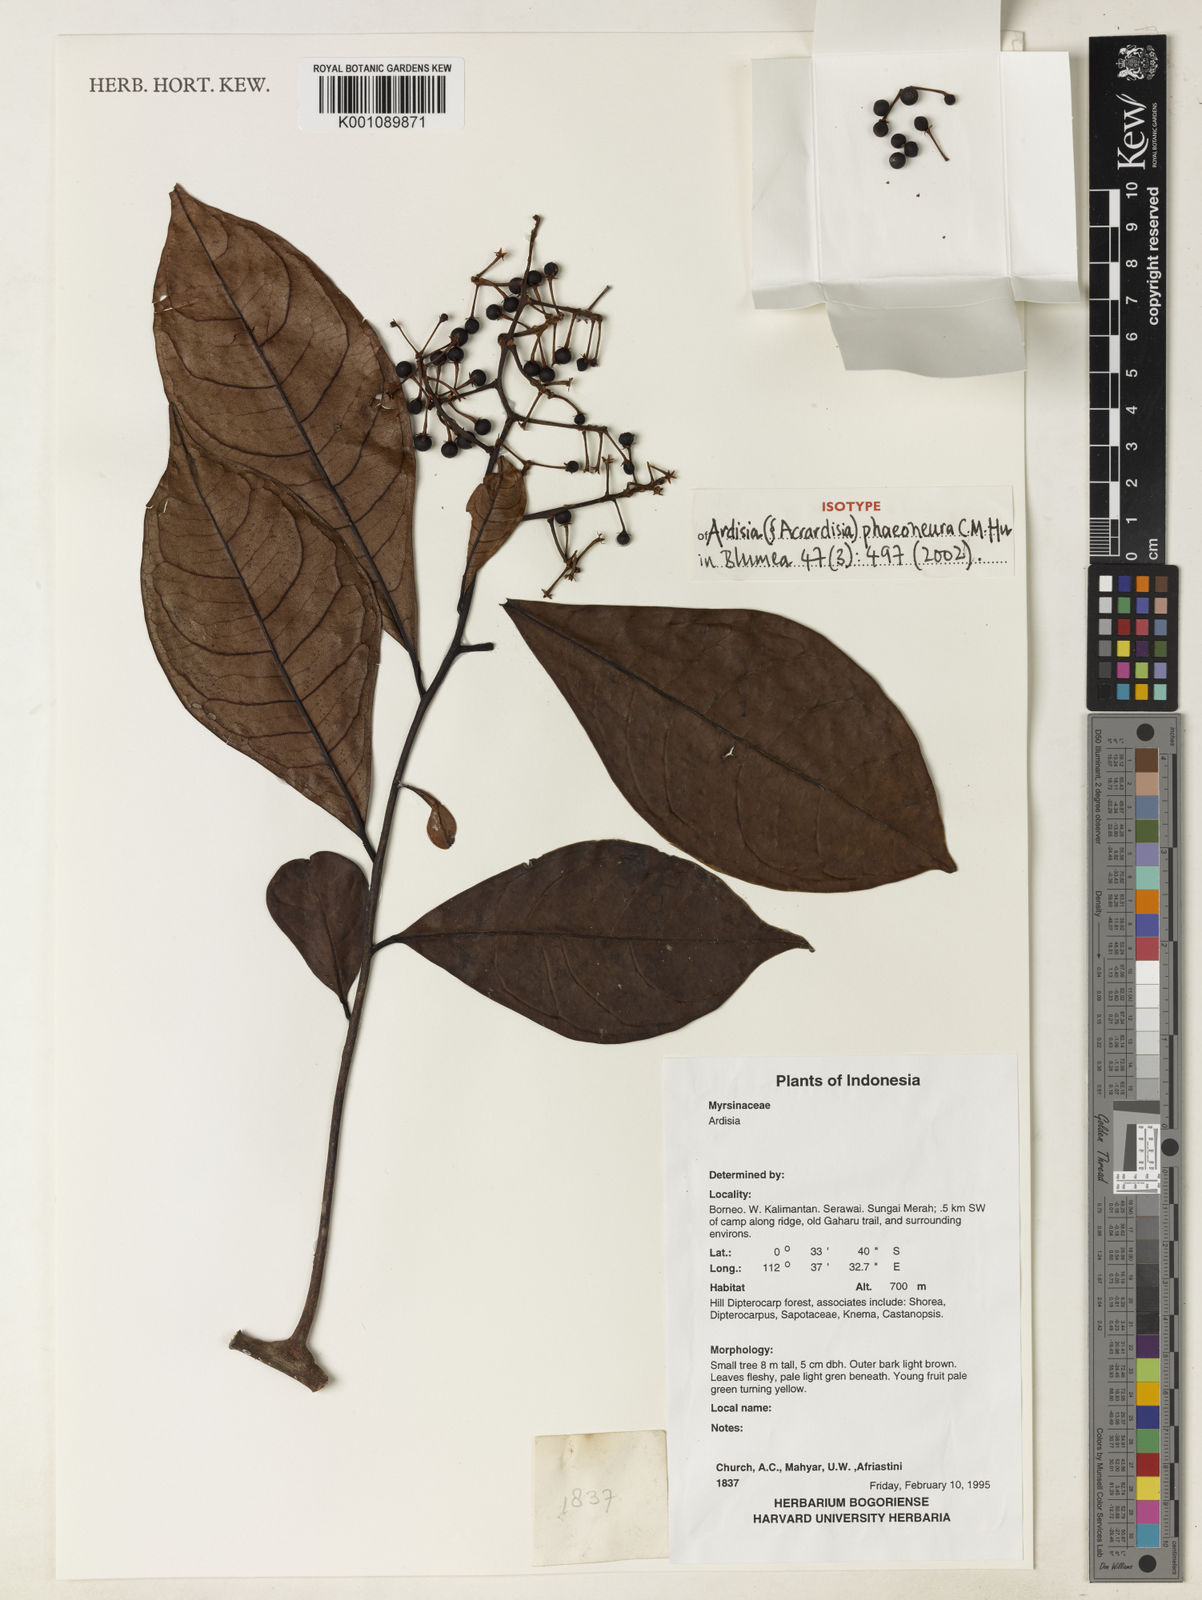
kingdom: Plantae
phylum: Tracheophyta
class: Magnoliopsida
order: Ericales
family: Primulaceae
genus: Ardisia
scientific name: Ardisia phaeoneura
